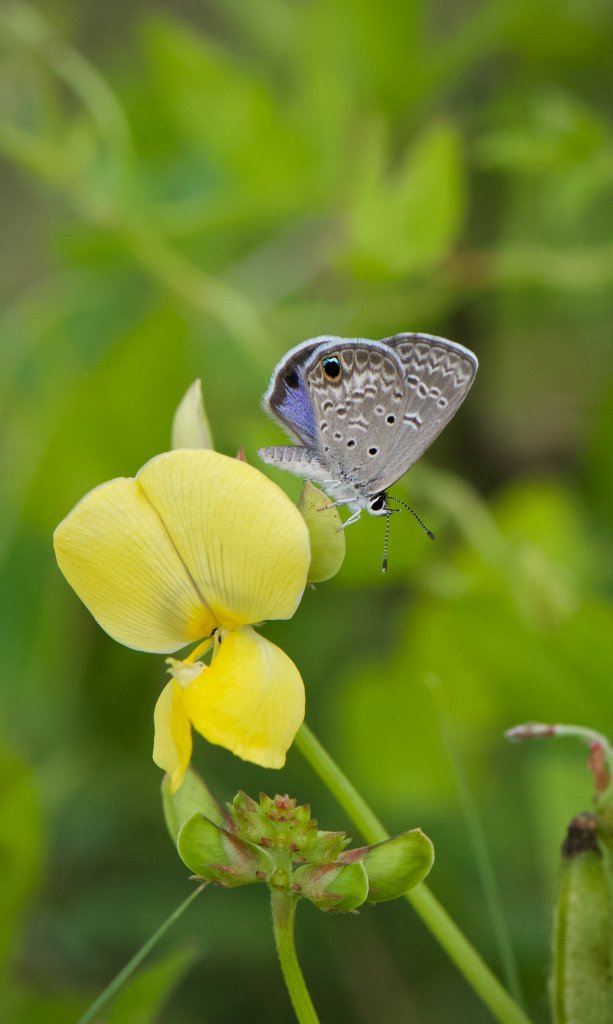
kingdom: Animalia
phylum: Arthropoda
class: Insecta
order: Lepidoptera
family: Lycaenidae
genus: Hemiargus
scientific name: Hemiargus ceraunus
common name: Ceraunus Blue
